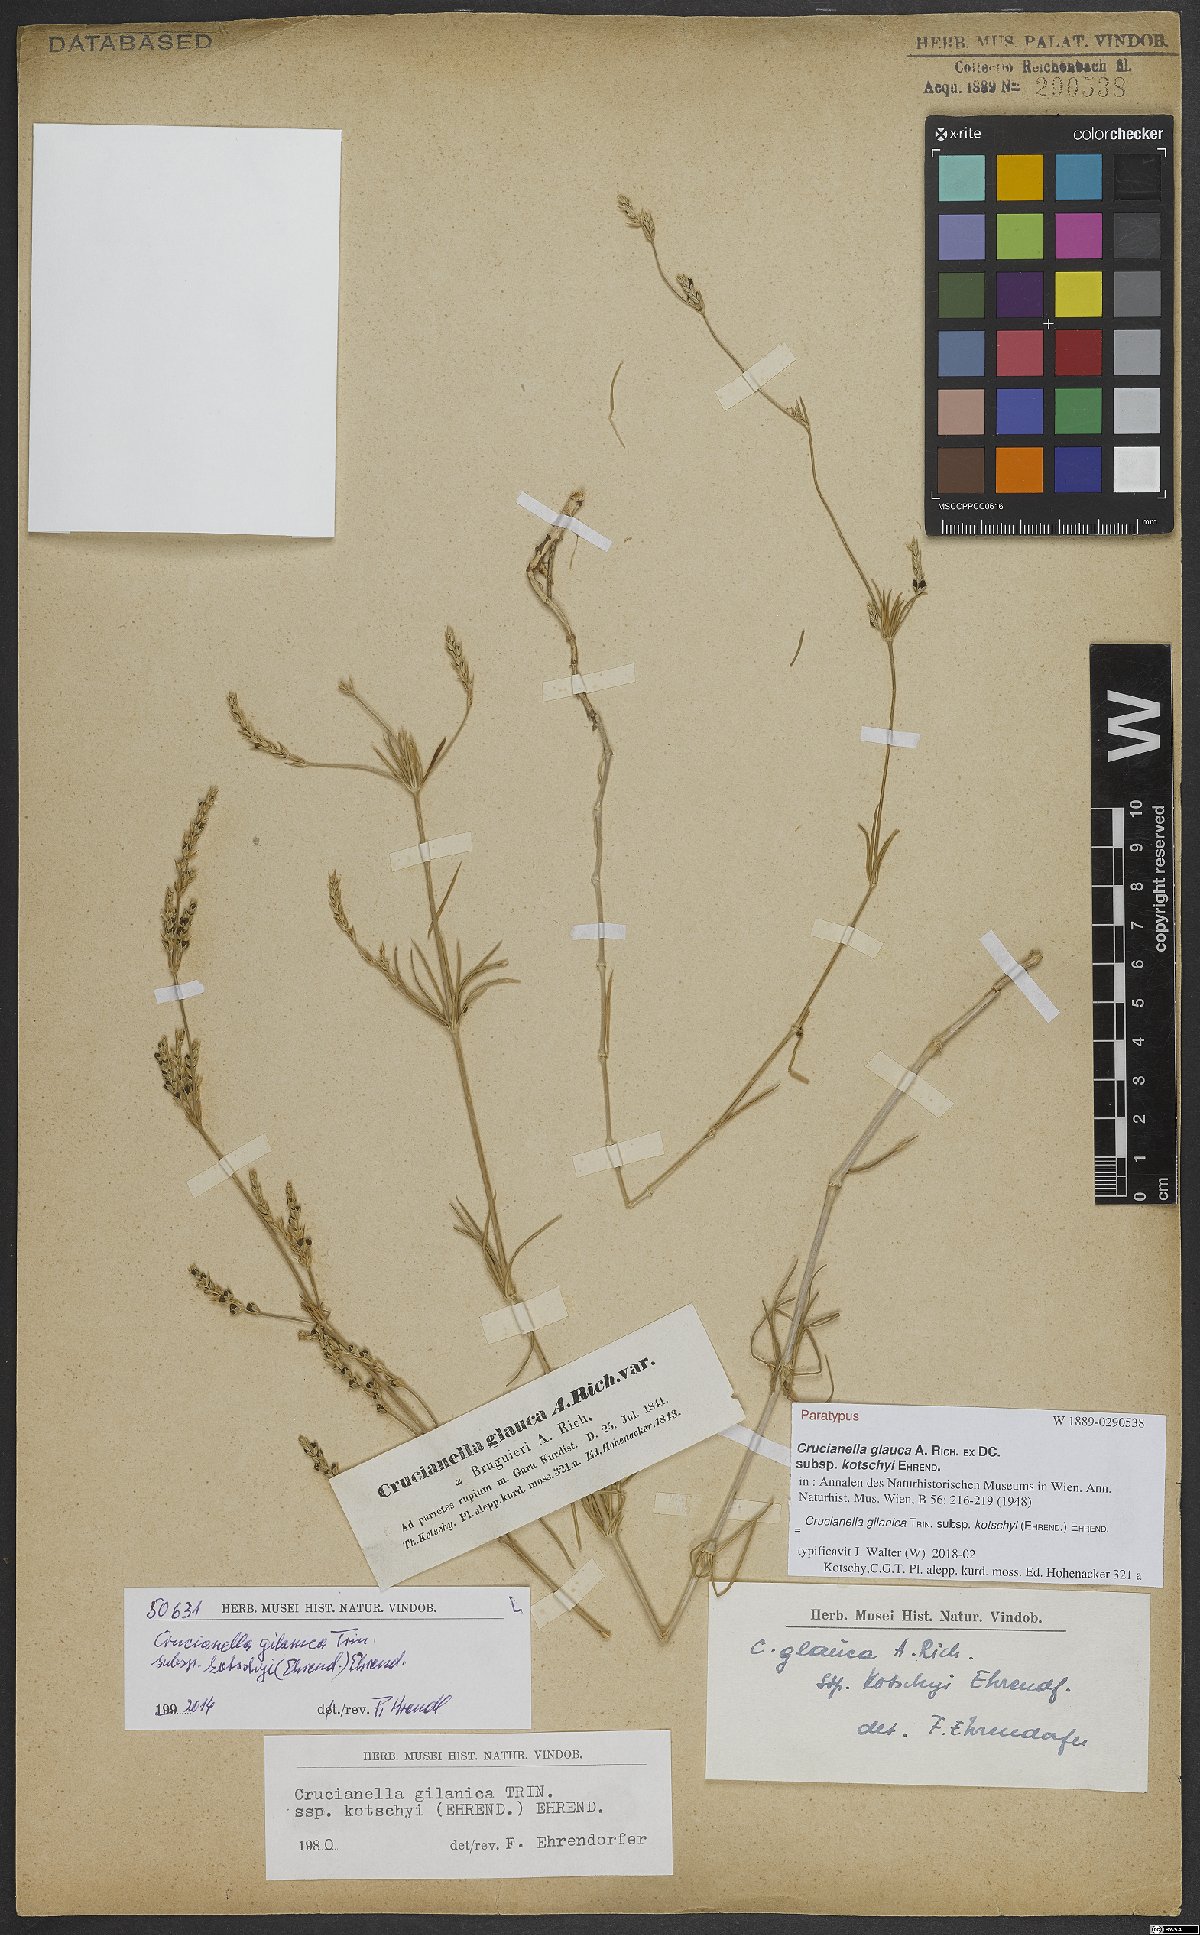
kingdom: Plantae
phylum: Tracheophyta
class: Magnoliopsida
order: Gentianales
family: Rubiaceae
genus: Crucianella
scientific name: Crucianella gilanica
